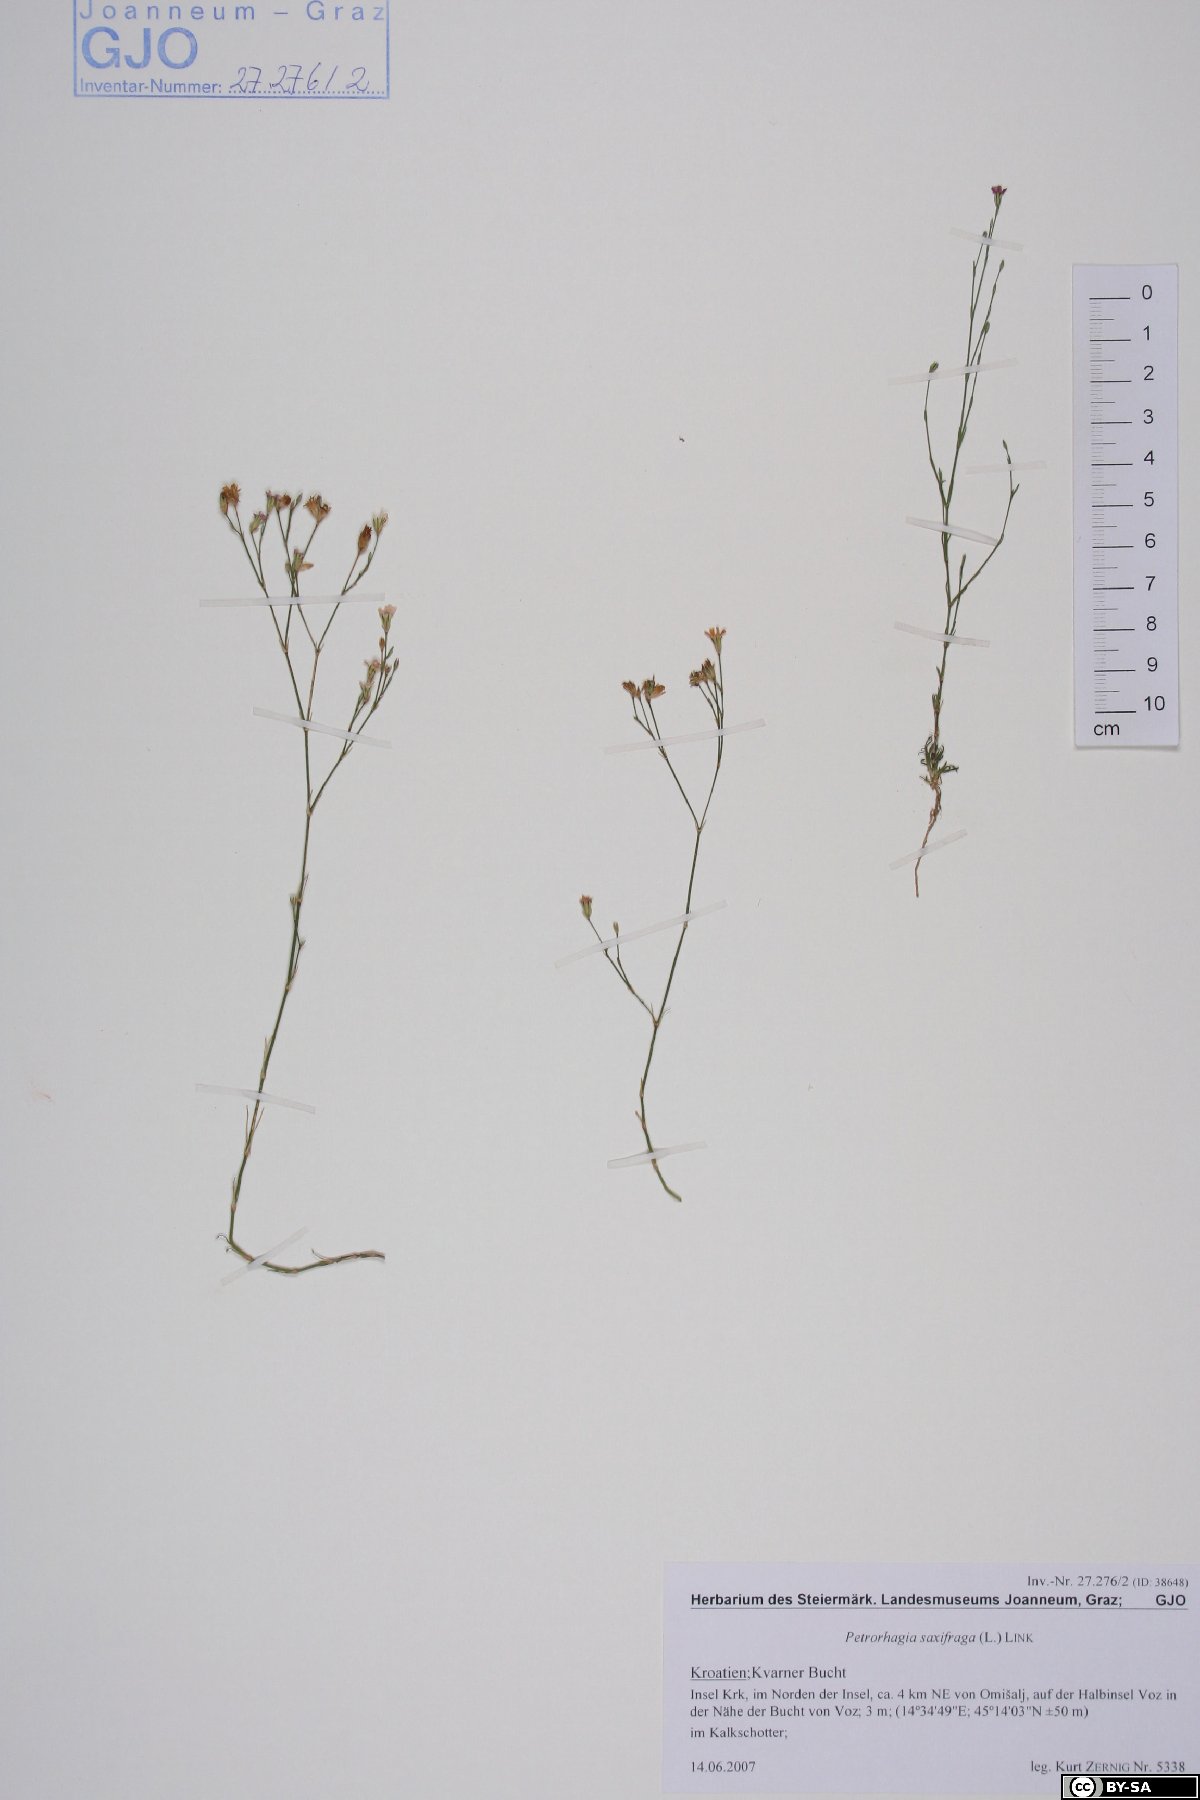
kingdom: Plantae
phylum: Tracheophyta
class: Magnoliopsida
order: Caryophyllales
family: Caryophyllaceae
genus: Petrorhagia
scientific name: Petrorhagia saxifraga
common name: Tunicflower
